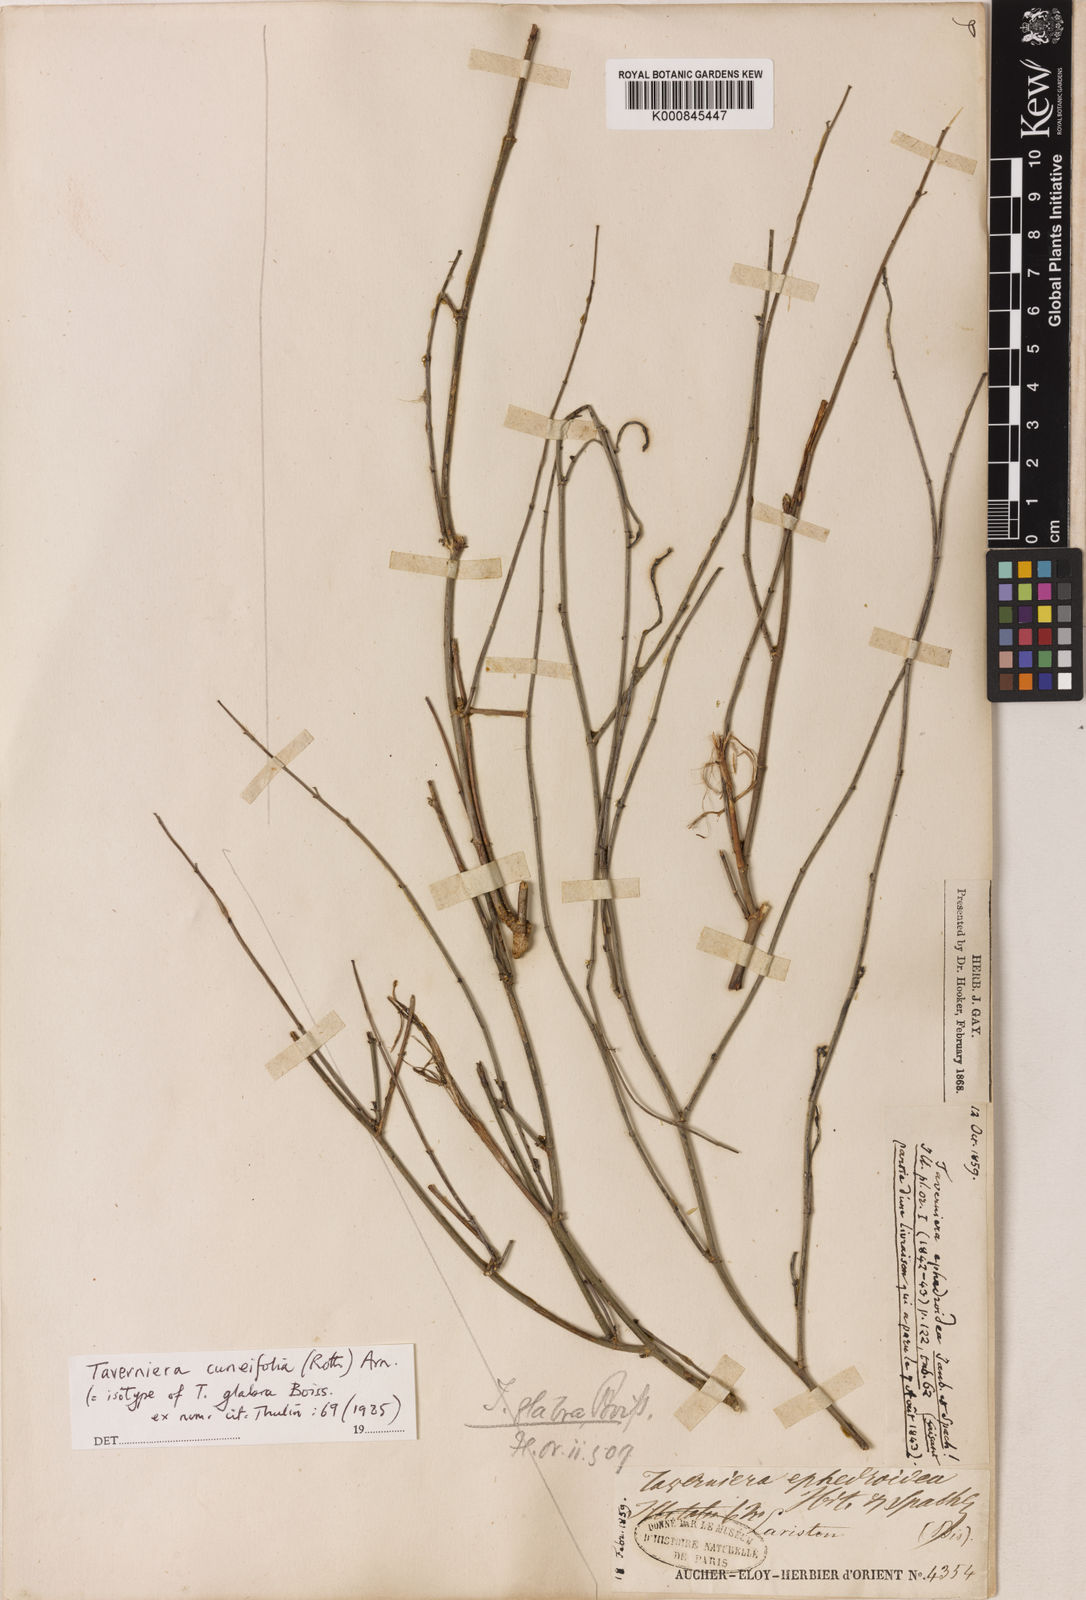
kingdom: Plantae
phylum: Tracheophyta
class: Magnoliopsida
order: Fabales
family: Fabaceae
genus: Taverniera
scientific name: Taverniera
